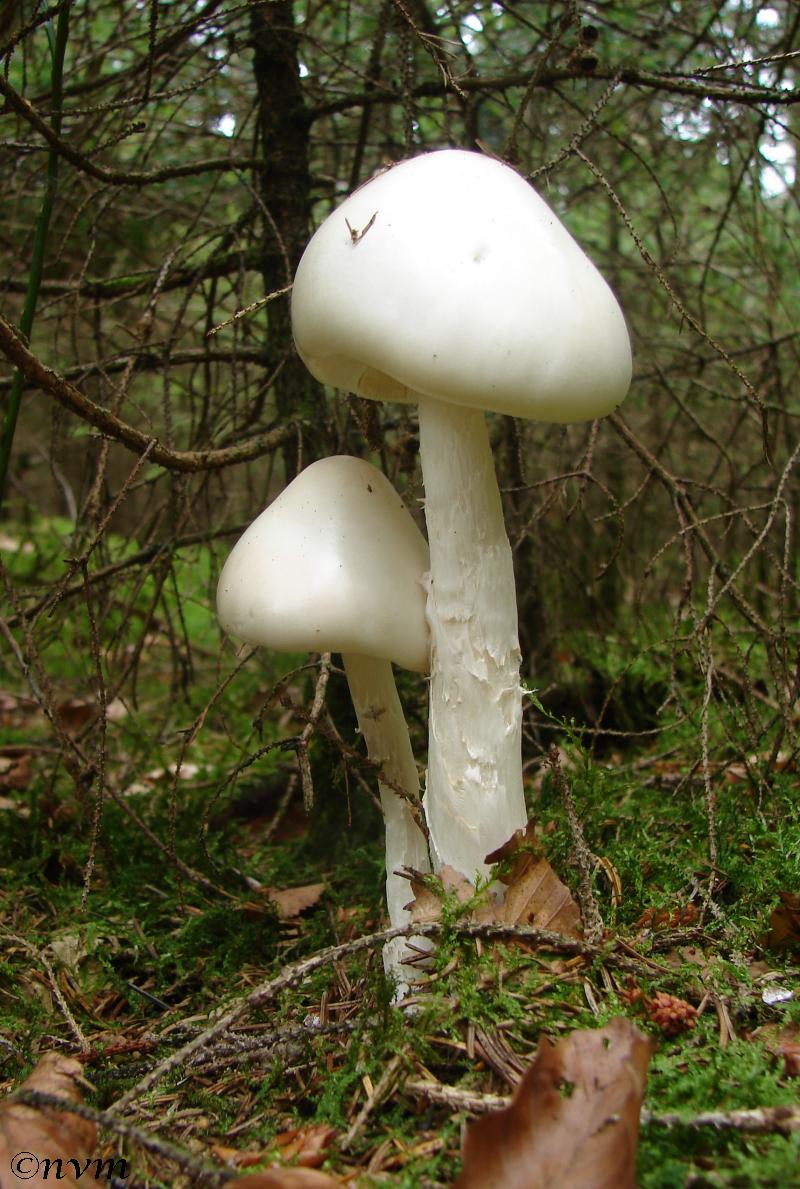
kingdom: Fungi
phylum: Basidiomycota
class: Agaricomycetes
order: Agaricales
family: Amanitaceae
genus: Amanita
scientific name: Amanita virosa
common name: snehvid fluesvamp
